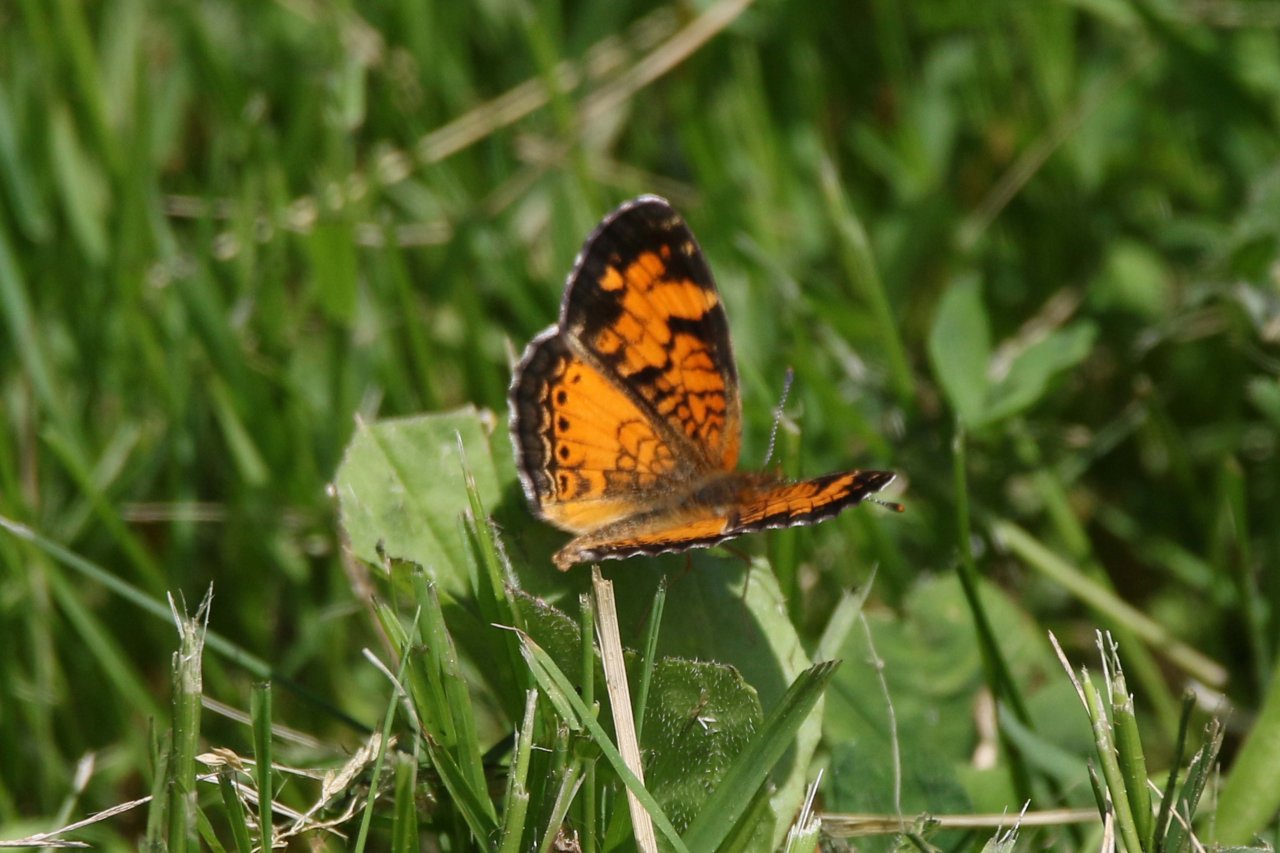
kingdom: Animalia
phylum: Arthropoda
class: Insecta
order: Lepidoptera
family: Nymphalidae
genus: Phyciodes
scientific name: Phyciodes tharos
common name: Northern Crescent
